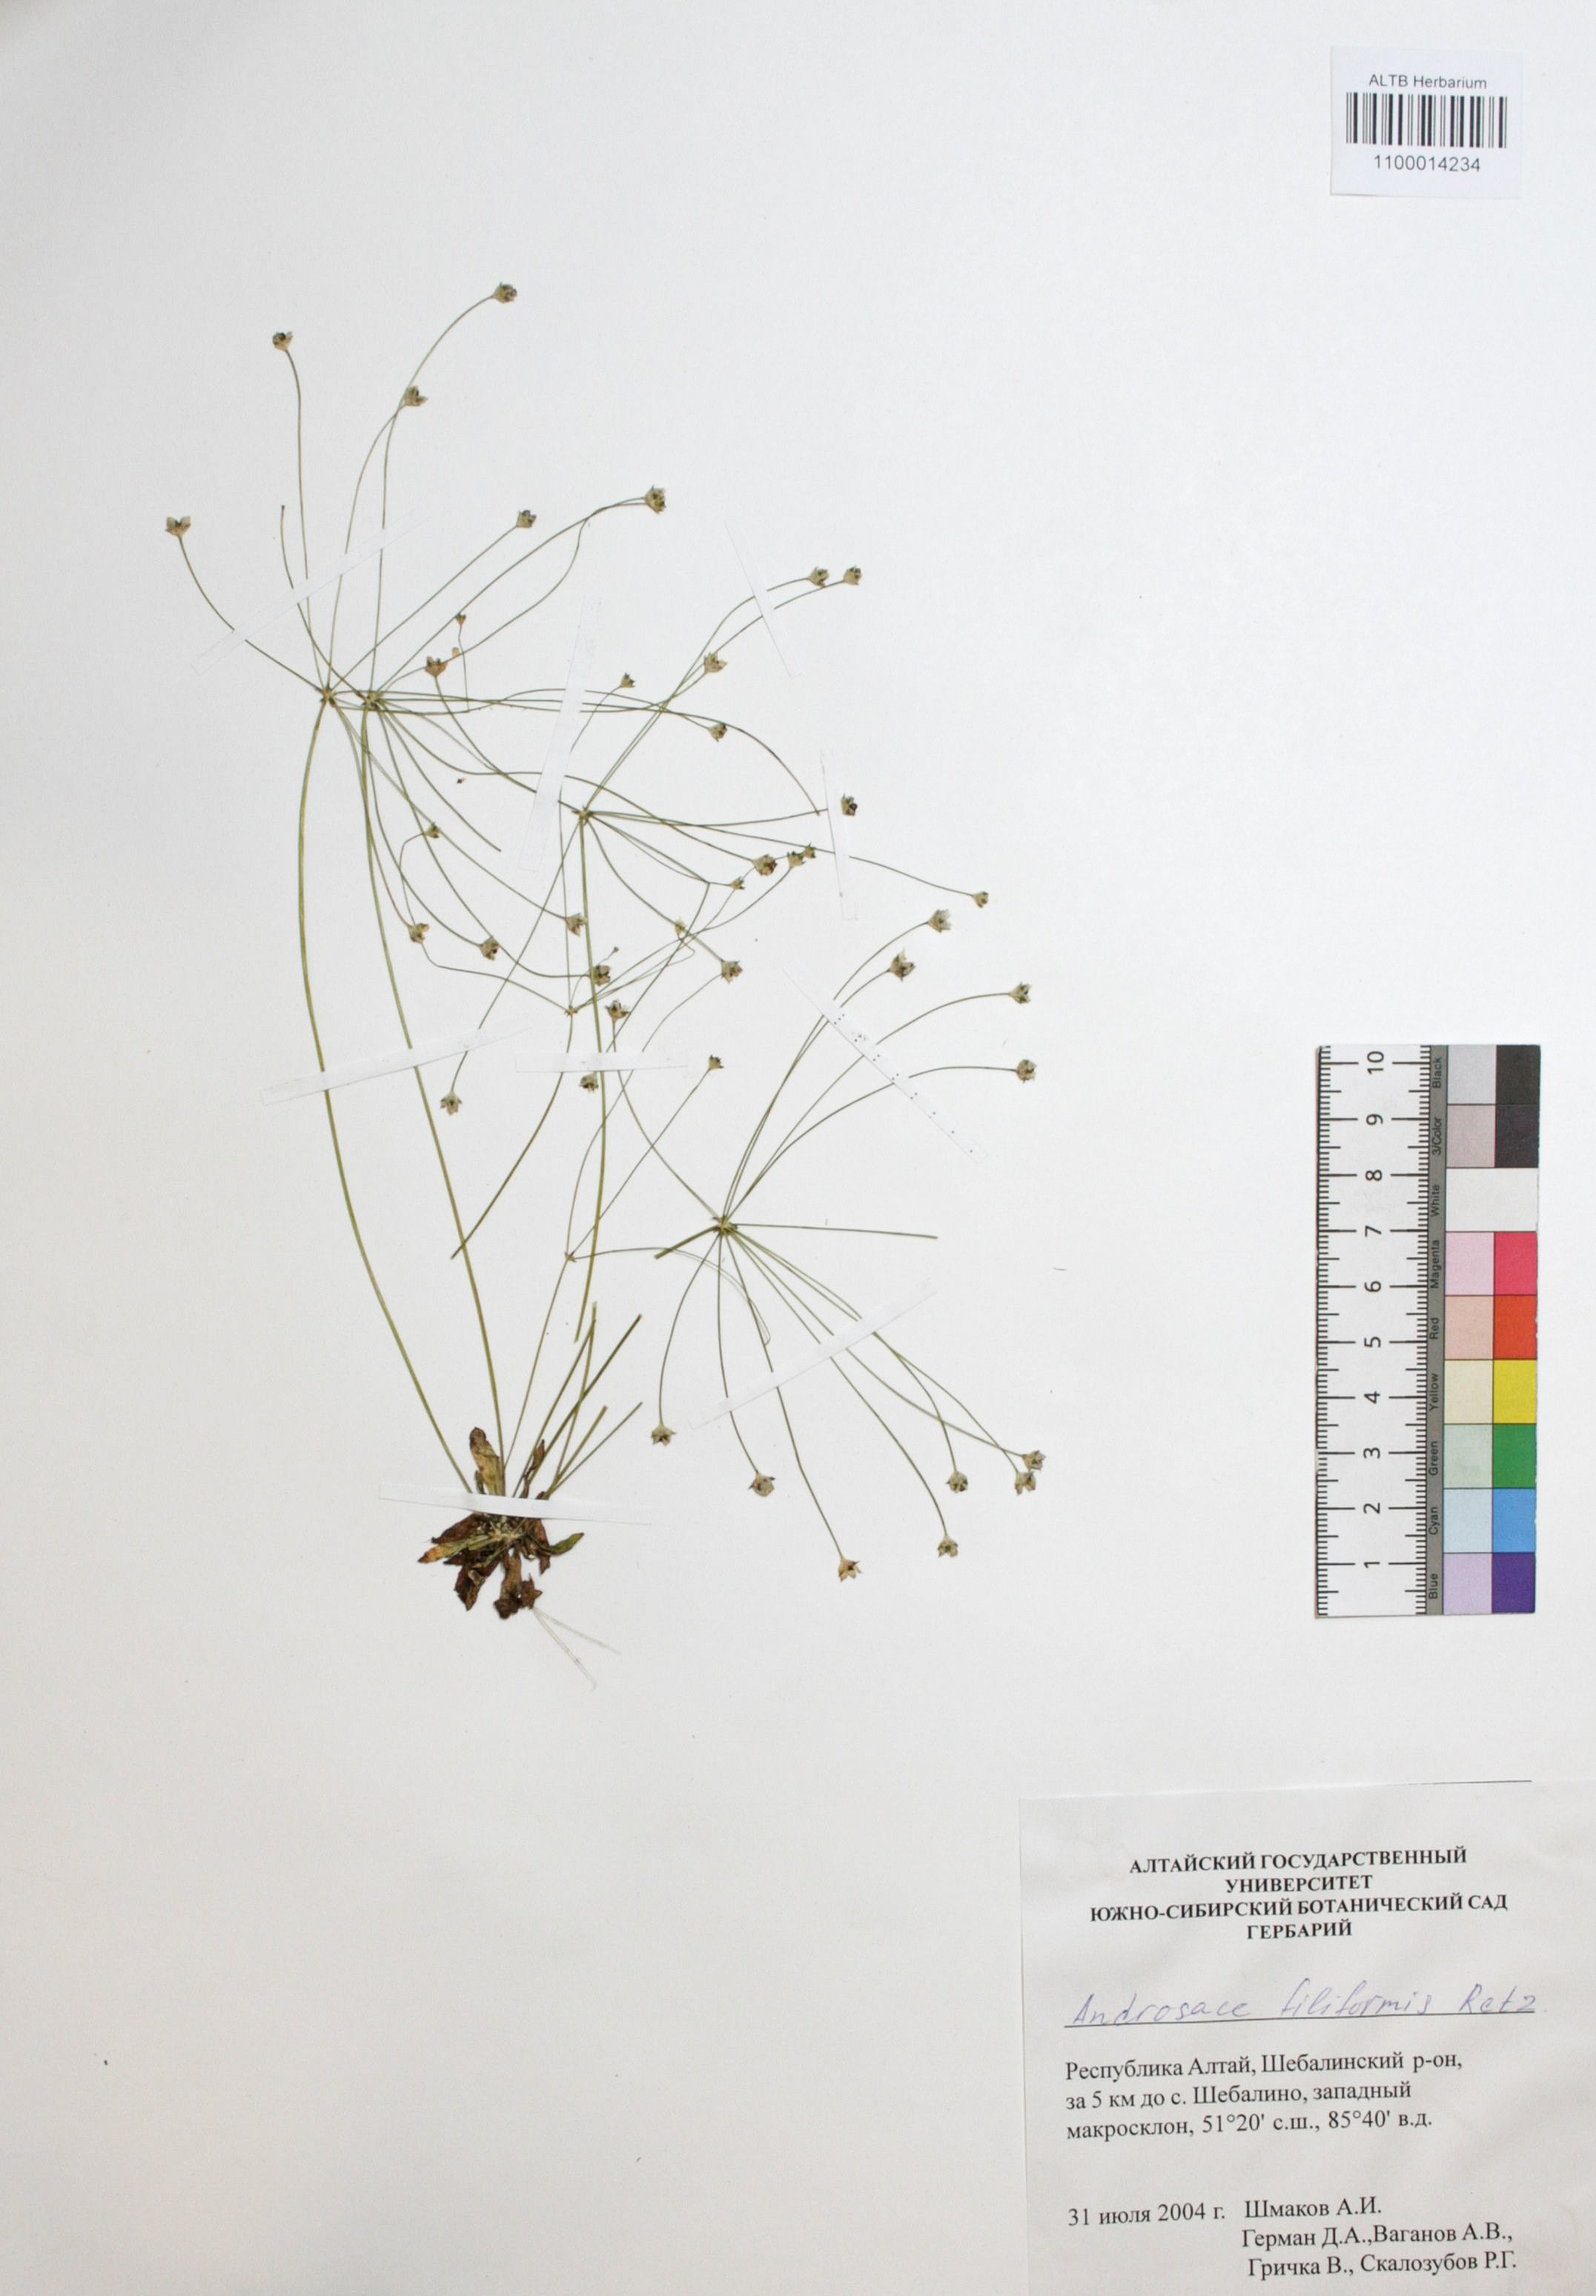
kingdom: Plantae
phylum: Tracheophyta
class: Magnoliopsida
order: Ericales
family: Primulaceae
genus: Androsace
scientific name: Androsace filiformis
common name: Filiform rock jasmine
